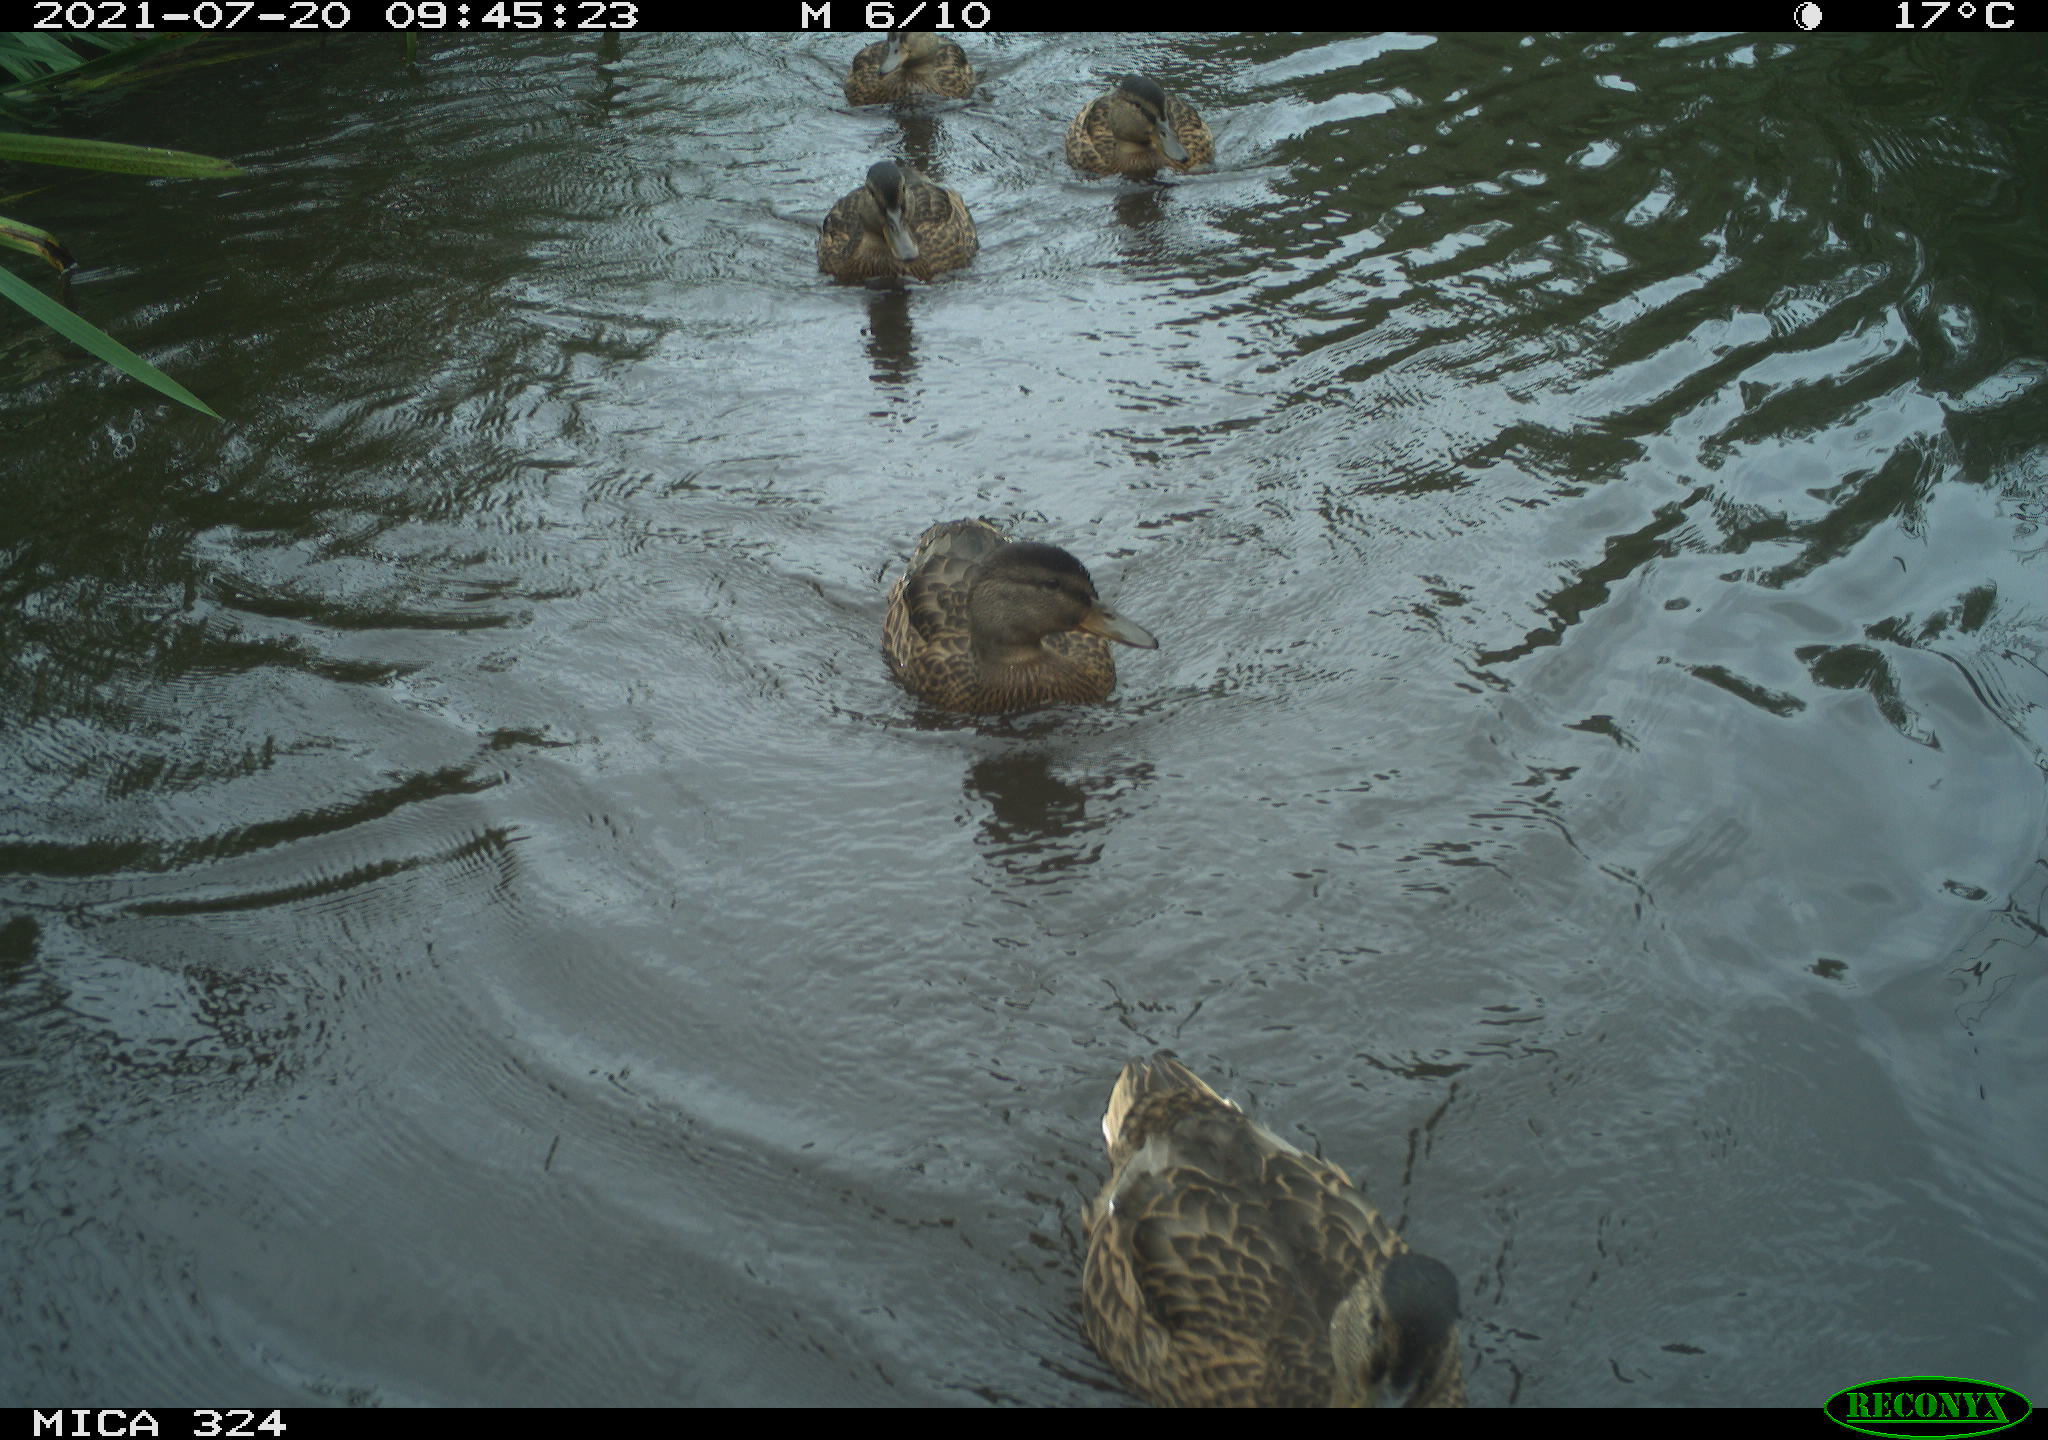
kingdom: Animalia
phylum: Chordata
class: Aves
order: Anseriformes
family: Anatidae
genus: Anas
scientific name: Anas platyrhynchos
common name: Mallard
